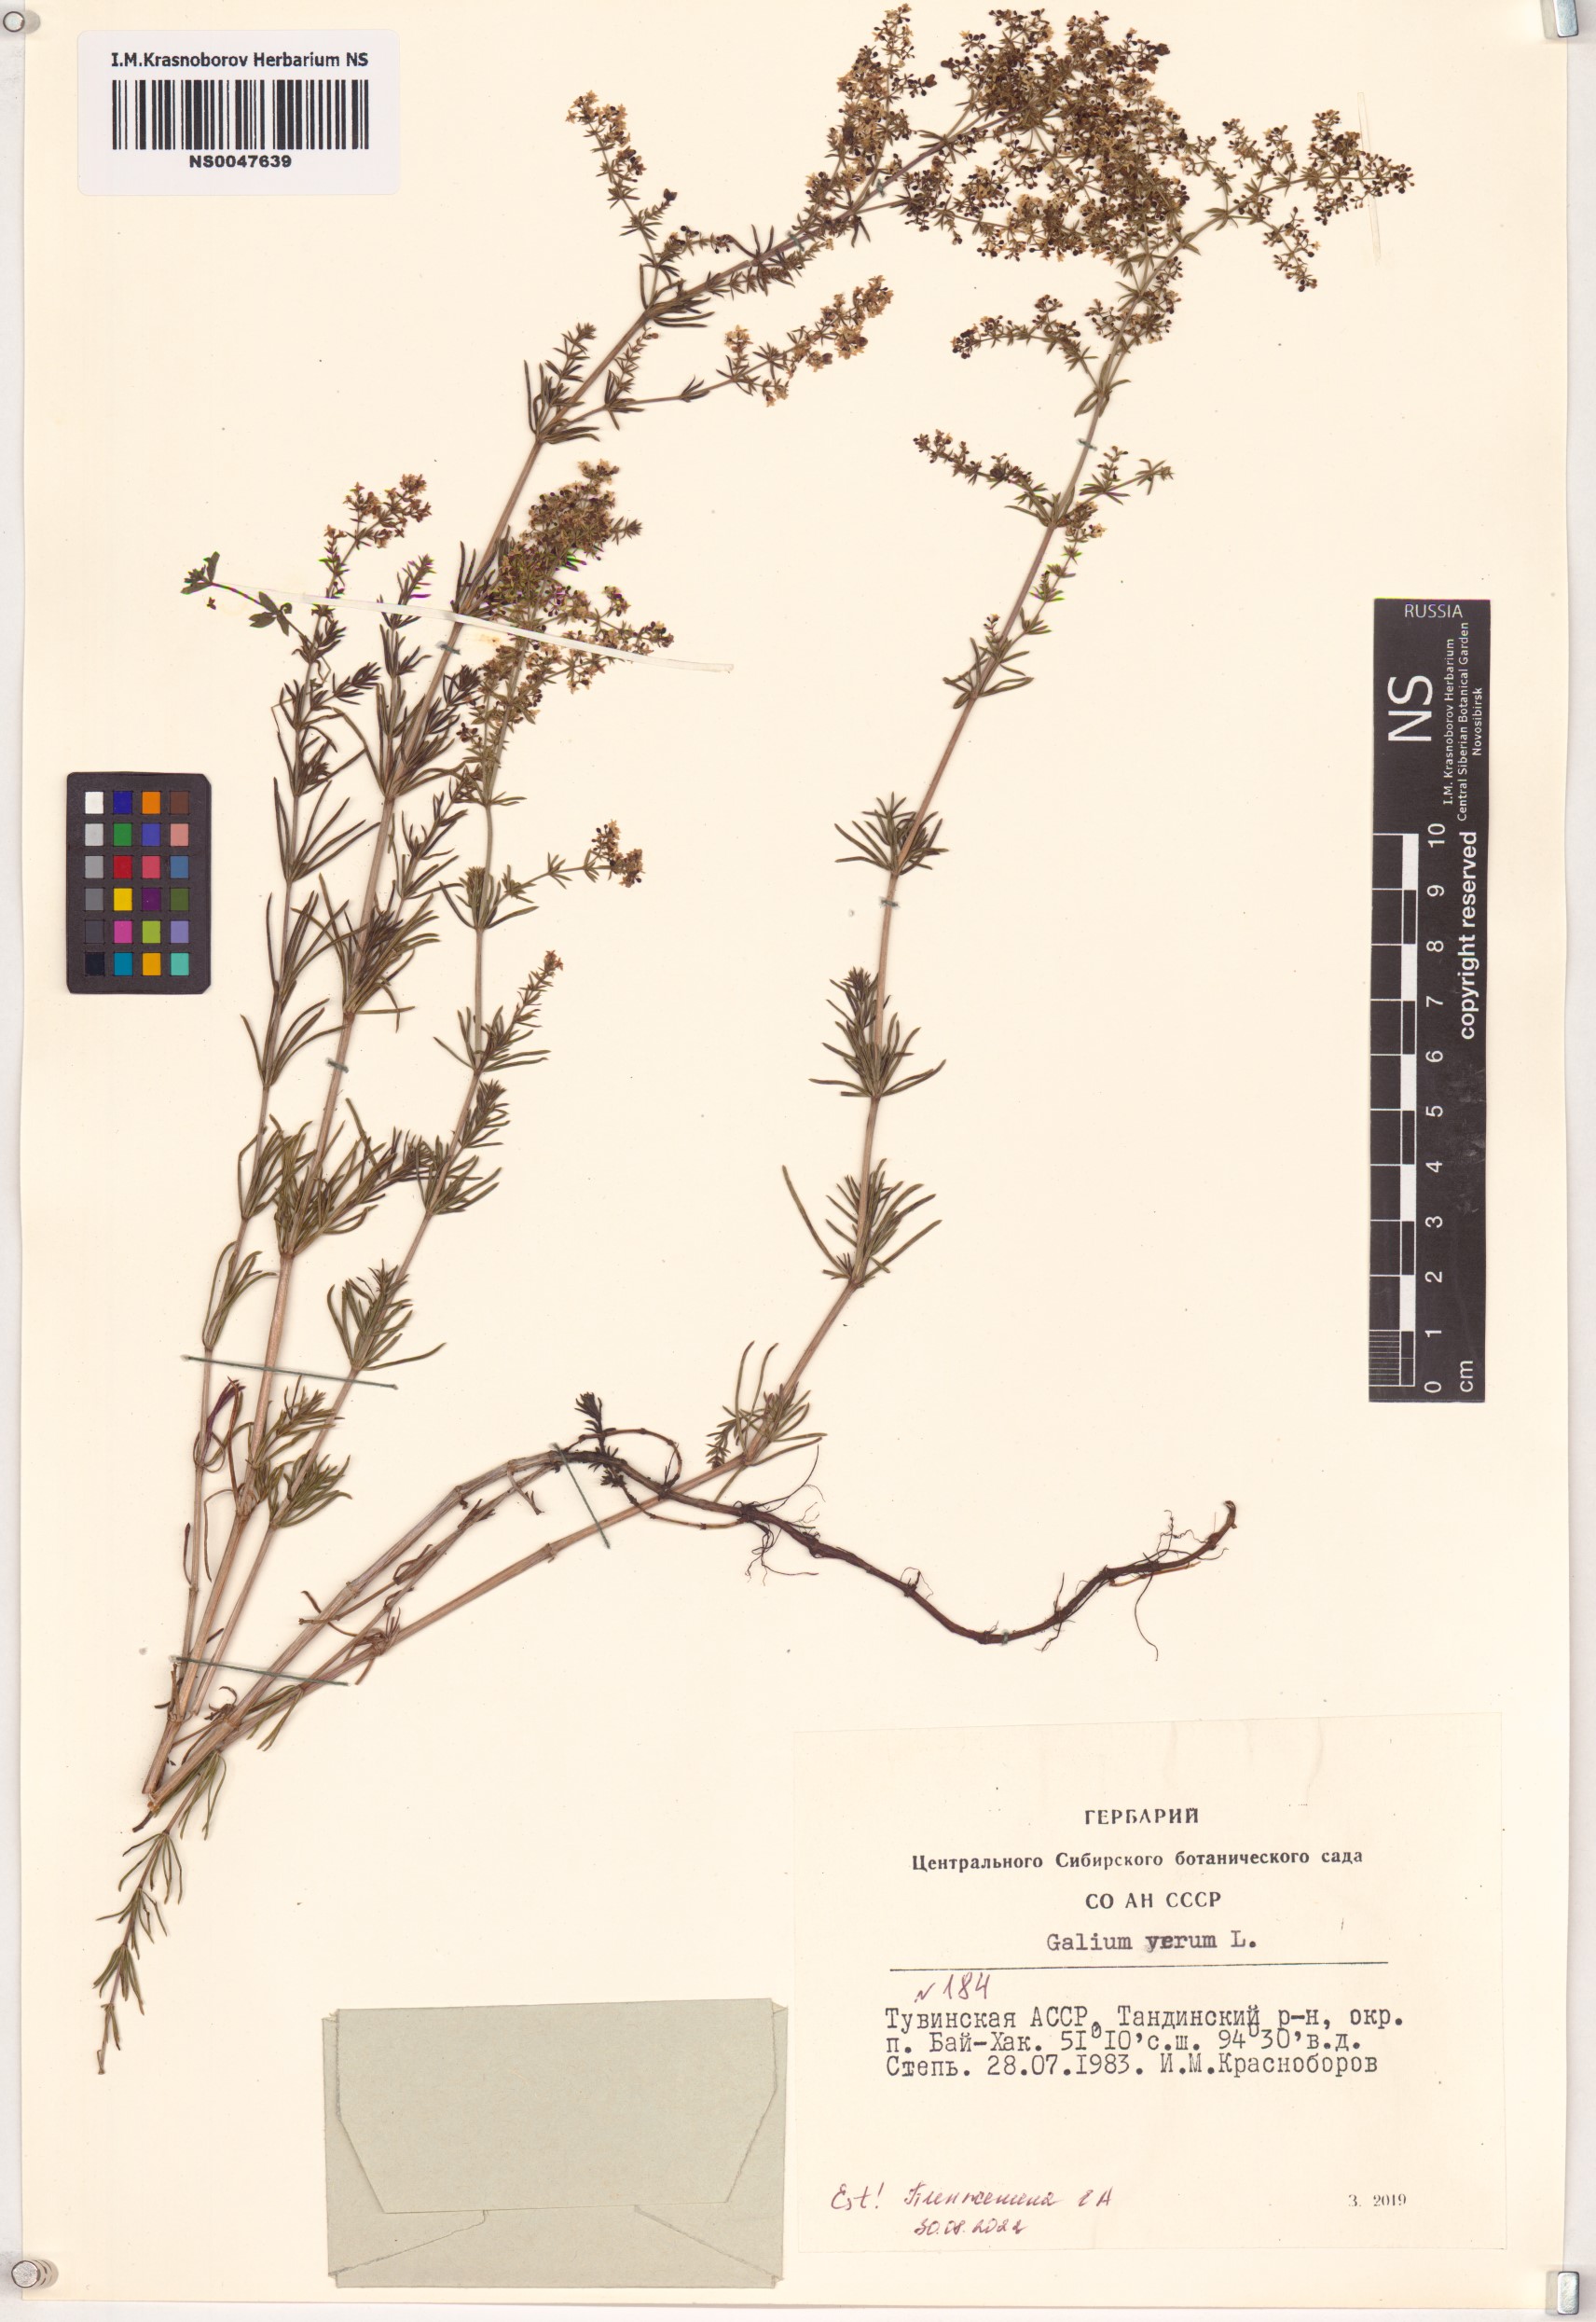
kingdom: Plantae
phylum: Tracheophyta
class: Magnoliopsida
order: Gentianales
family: Rubiaceae
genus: Galium
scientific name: Galium verum
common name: Lady's bedstraw
